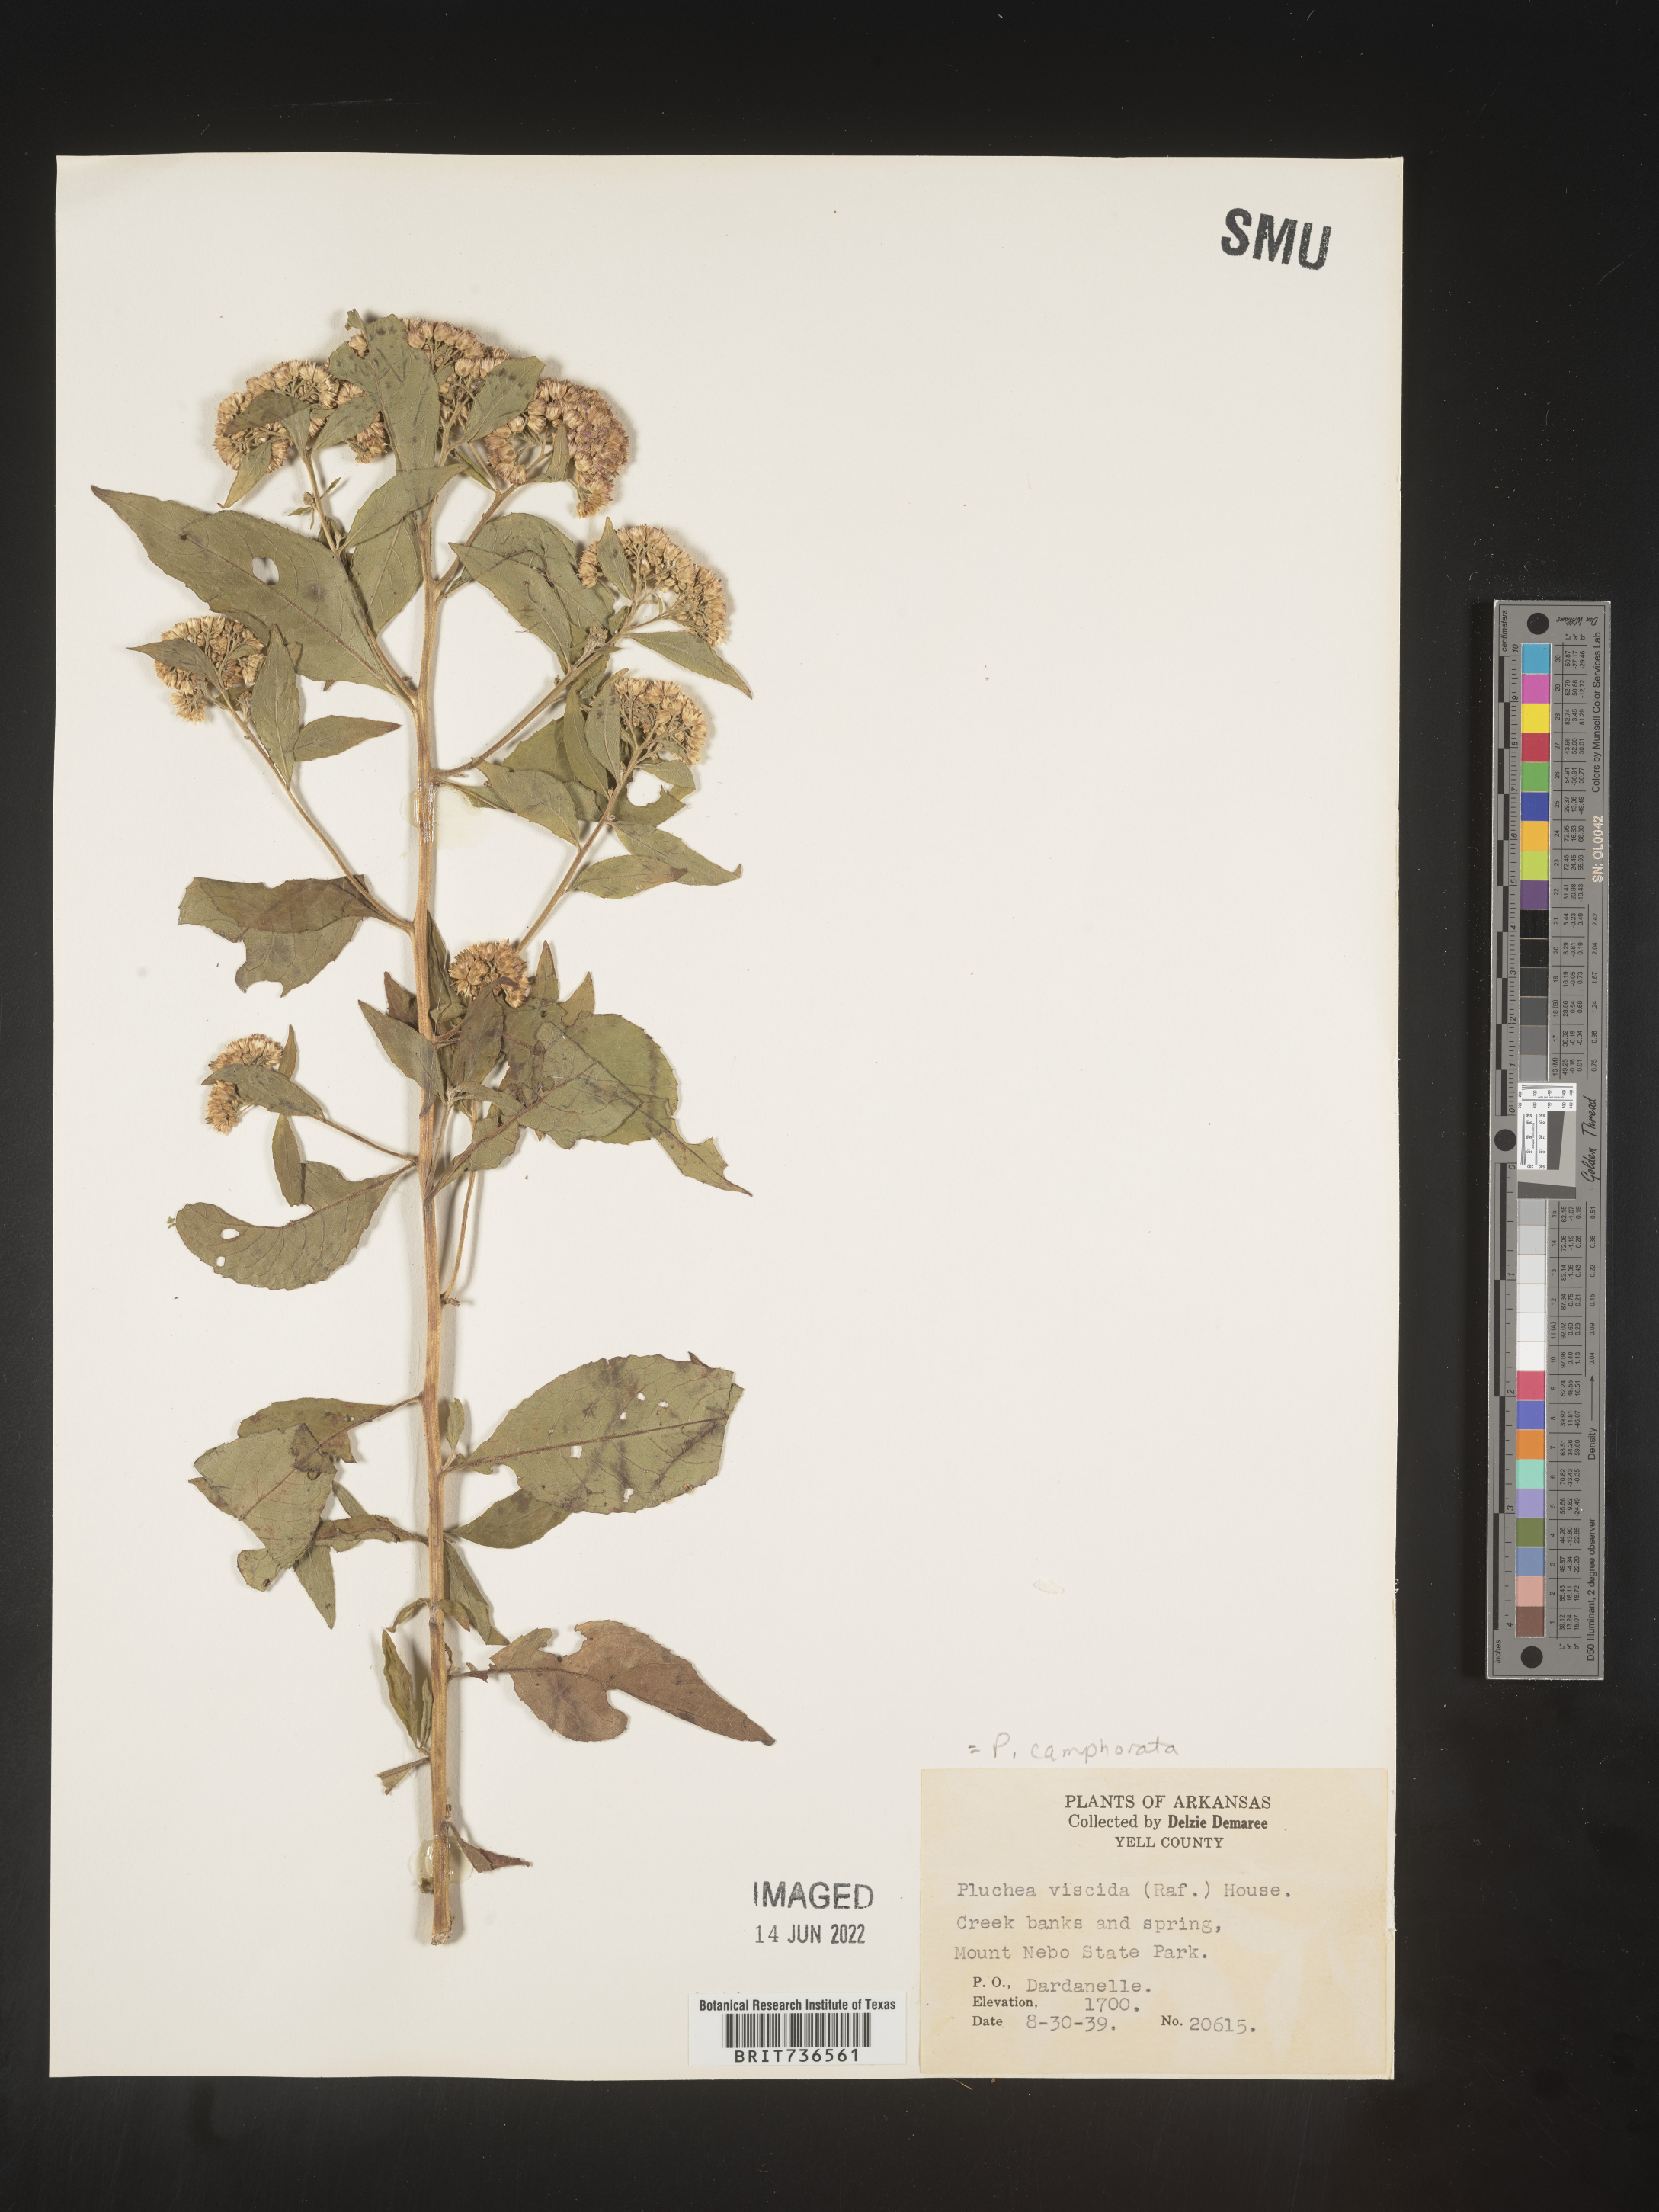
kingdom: Plantae
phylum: Tracheophyta
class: Magnoliopsida
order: Asterales
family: Asteraceae
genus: Pluchea
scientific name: Pluchea camphorata
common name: Camphor pluchea
